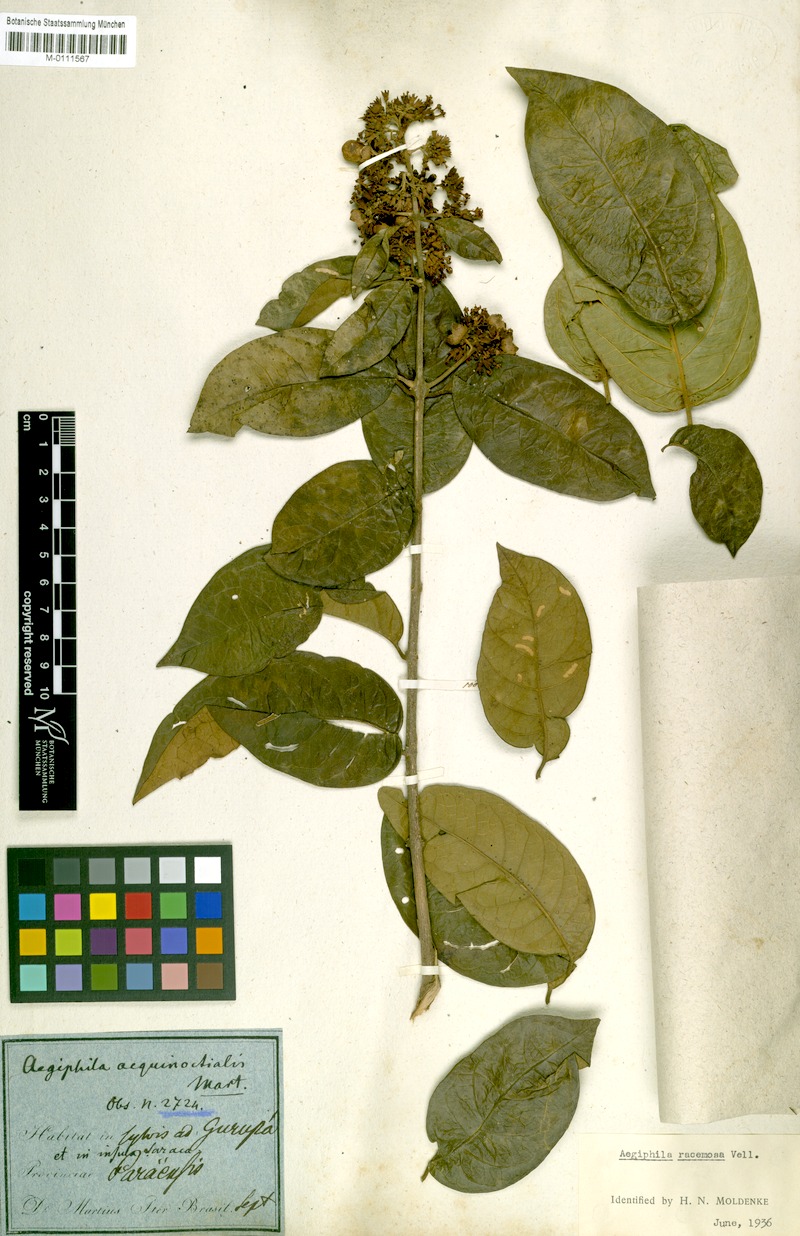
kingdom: Plantae
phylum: Tracheophyta
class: Magnoliopsida
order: Lamiales
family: Lamiaceae
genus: Aegiphila
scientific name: Aegiphila vitelliniflora
